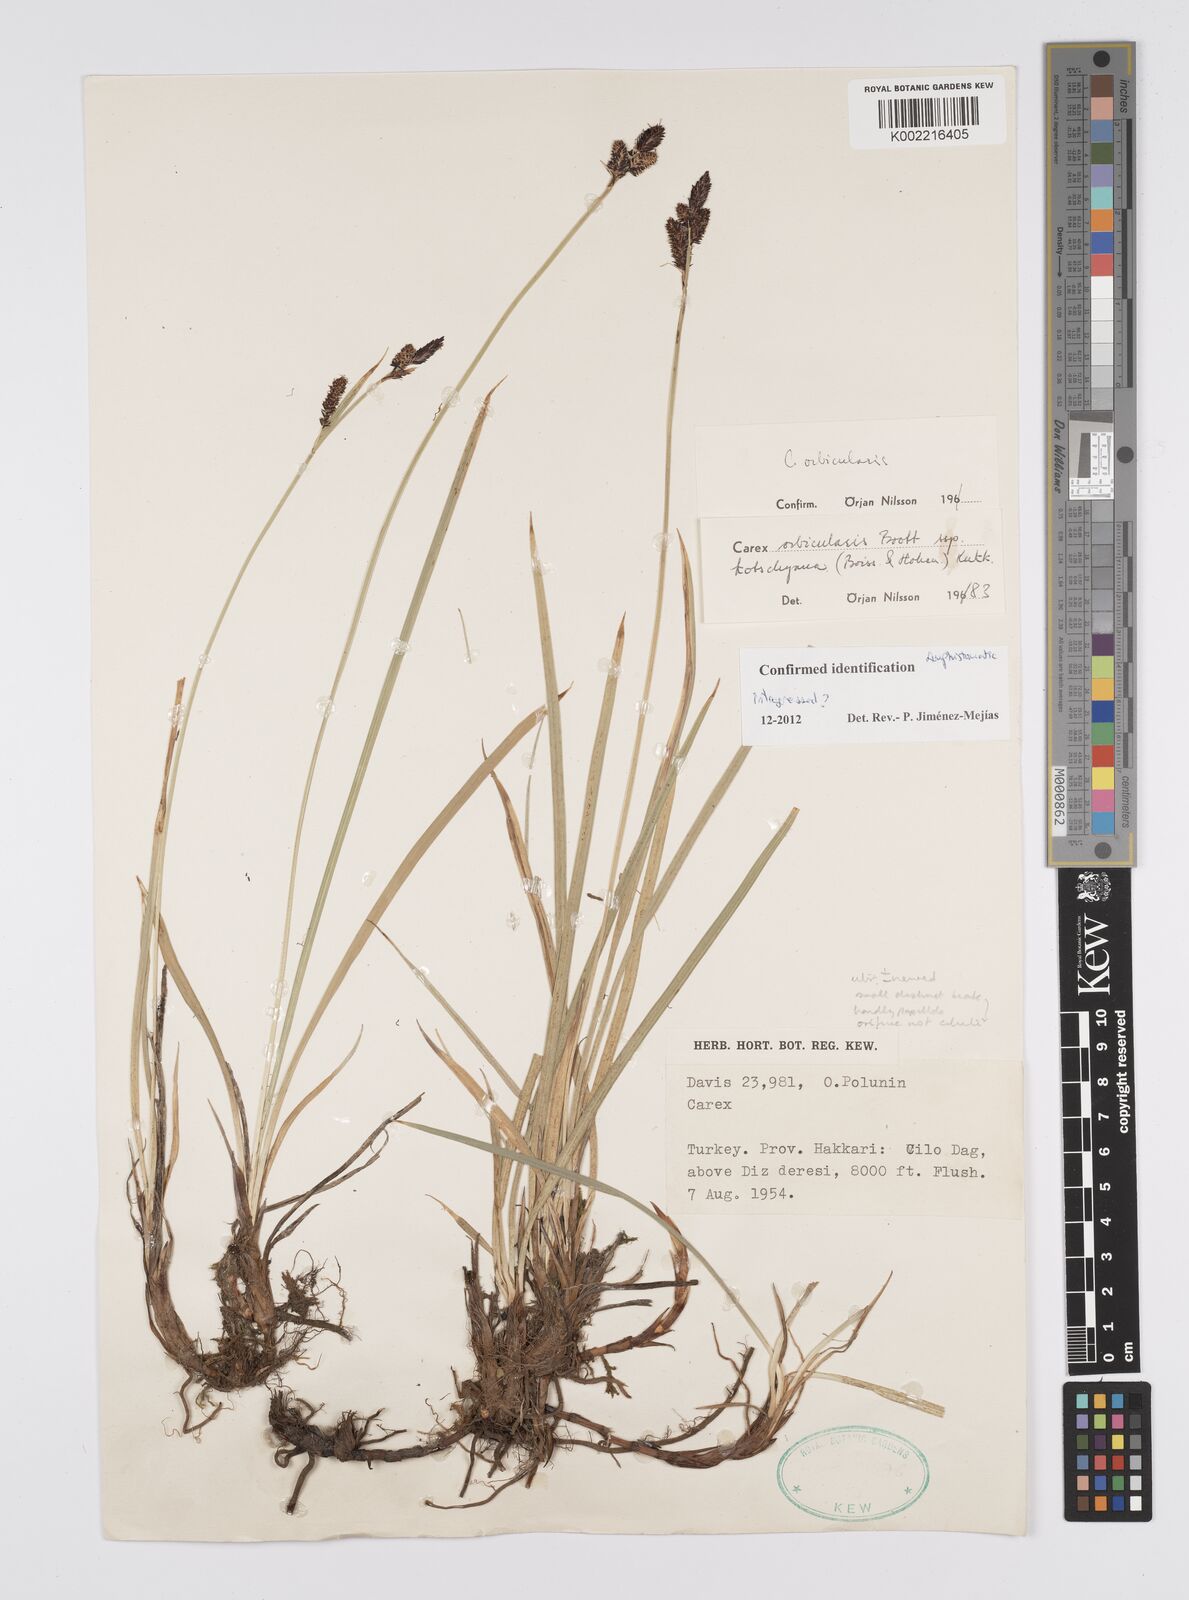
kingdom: Plantae
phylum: Tracheophyta
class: Liliopsida
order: Poales
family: Cyperaceae
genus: Carex
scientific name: Carex orbicularis
